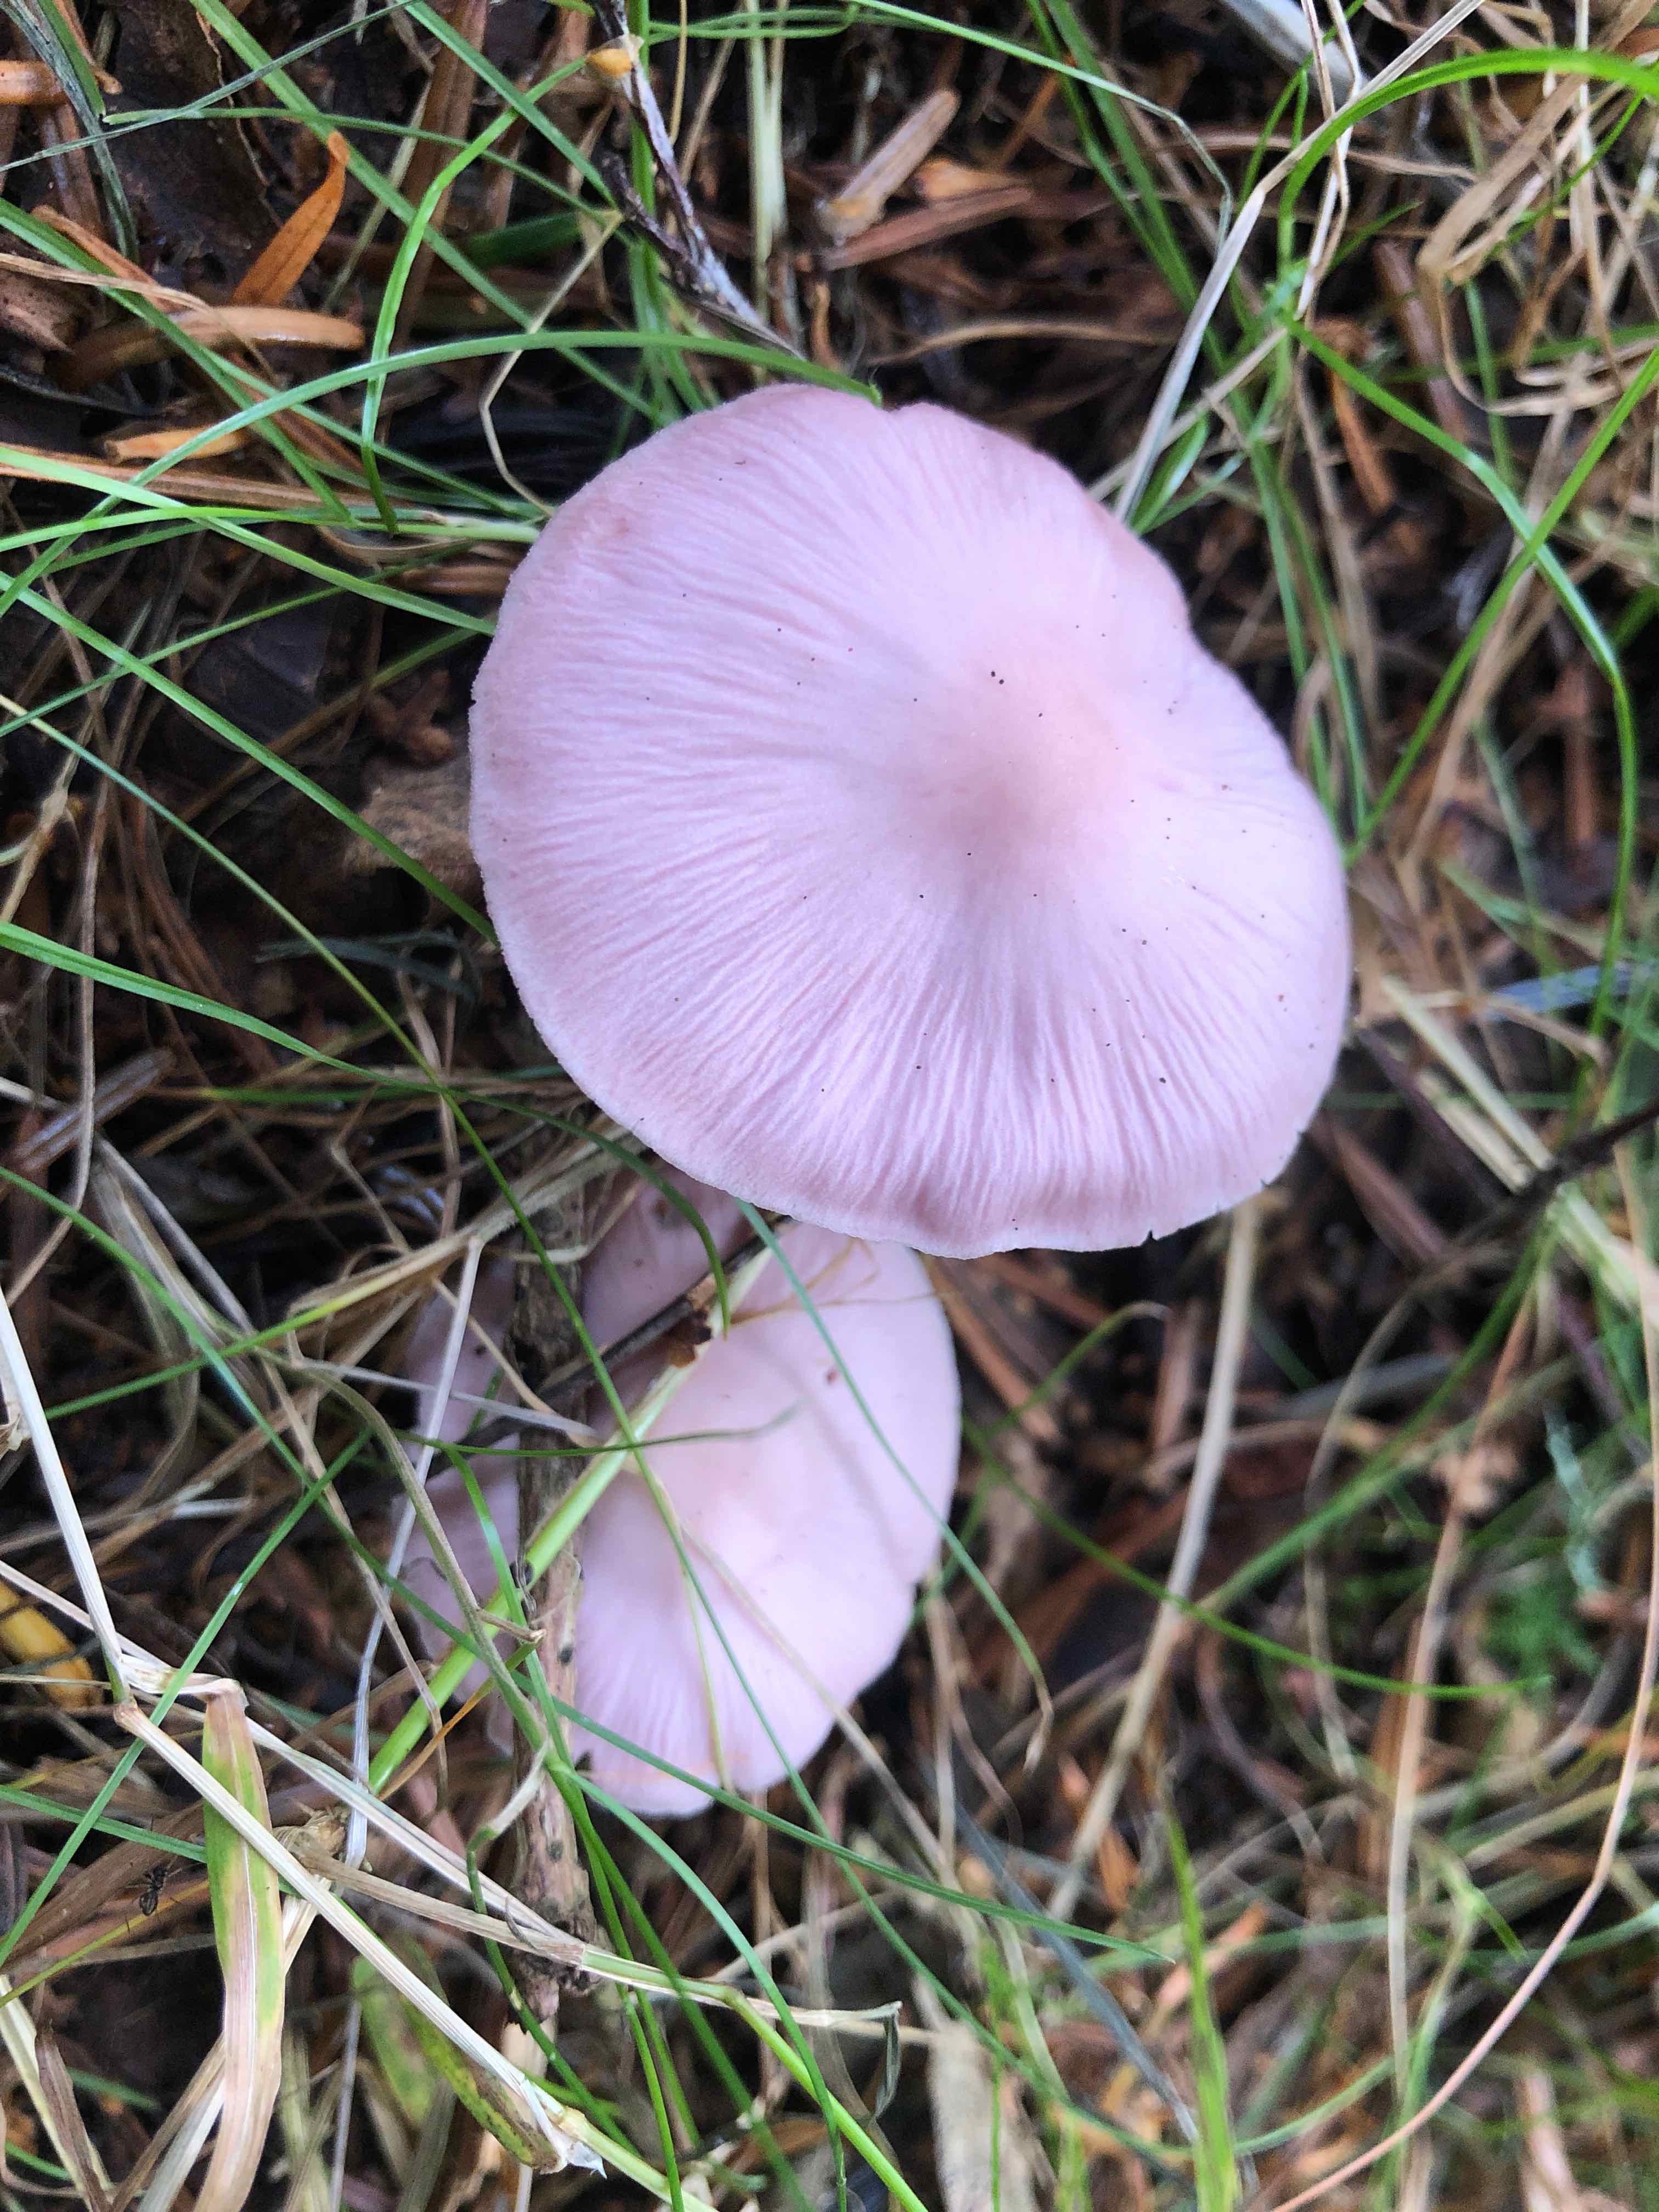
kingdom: Fungi
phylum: Basidiomycota
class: Agaricomycetes
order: Agaricales
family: Mycenaceae
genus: Mycena
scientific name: Mycena rosea
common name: rosa huesvamp
